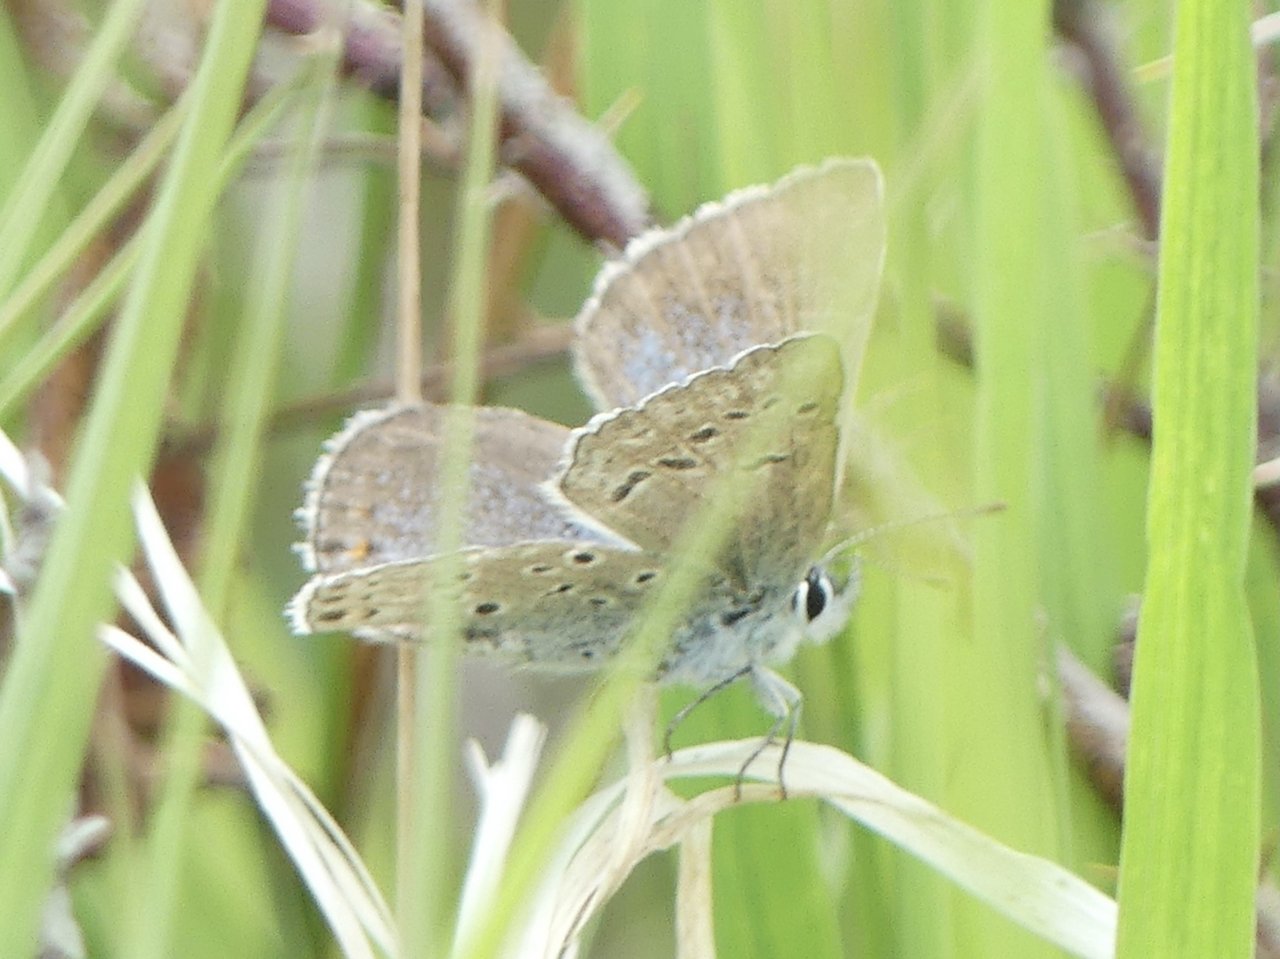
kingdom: Animalia
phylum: Arthropoda
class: Insecta
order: Lepidoptera
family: Lycaenidae
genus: Plebejus
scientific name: Plebejus saepiolus
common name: Greenish Blue
